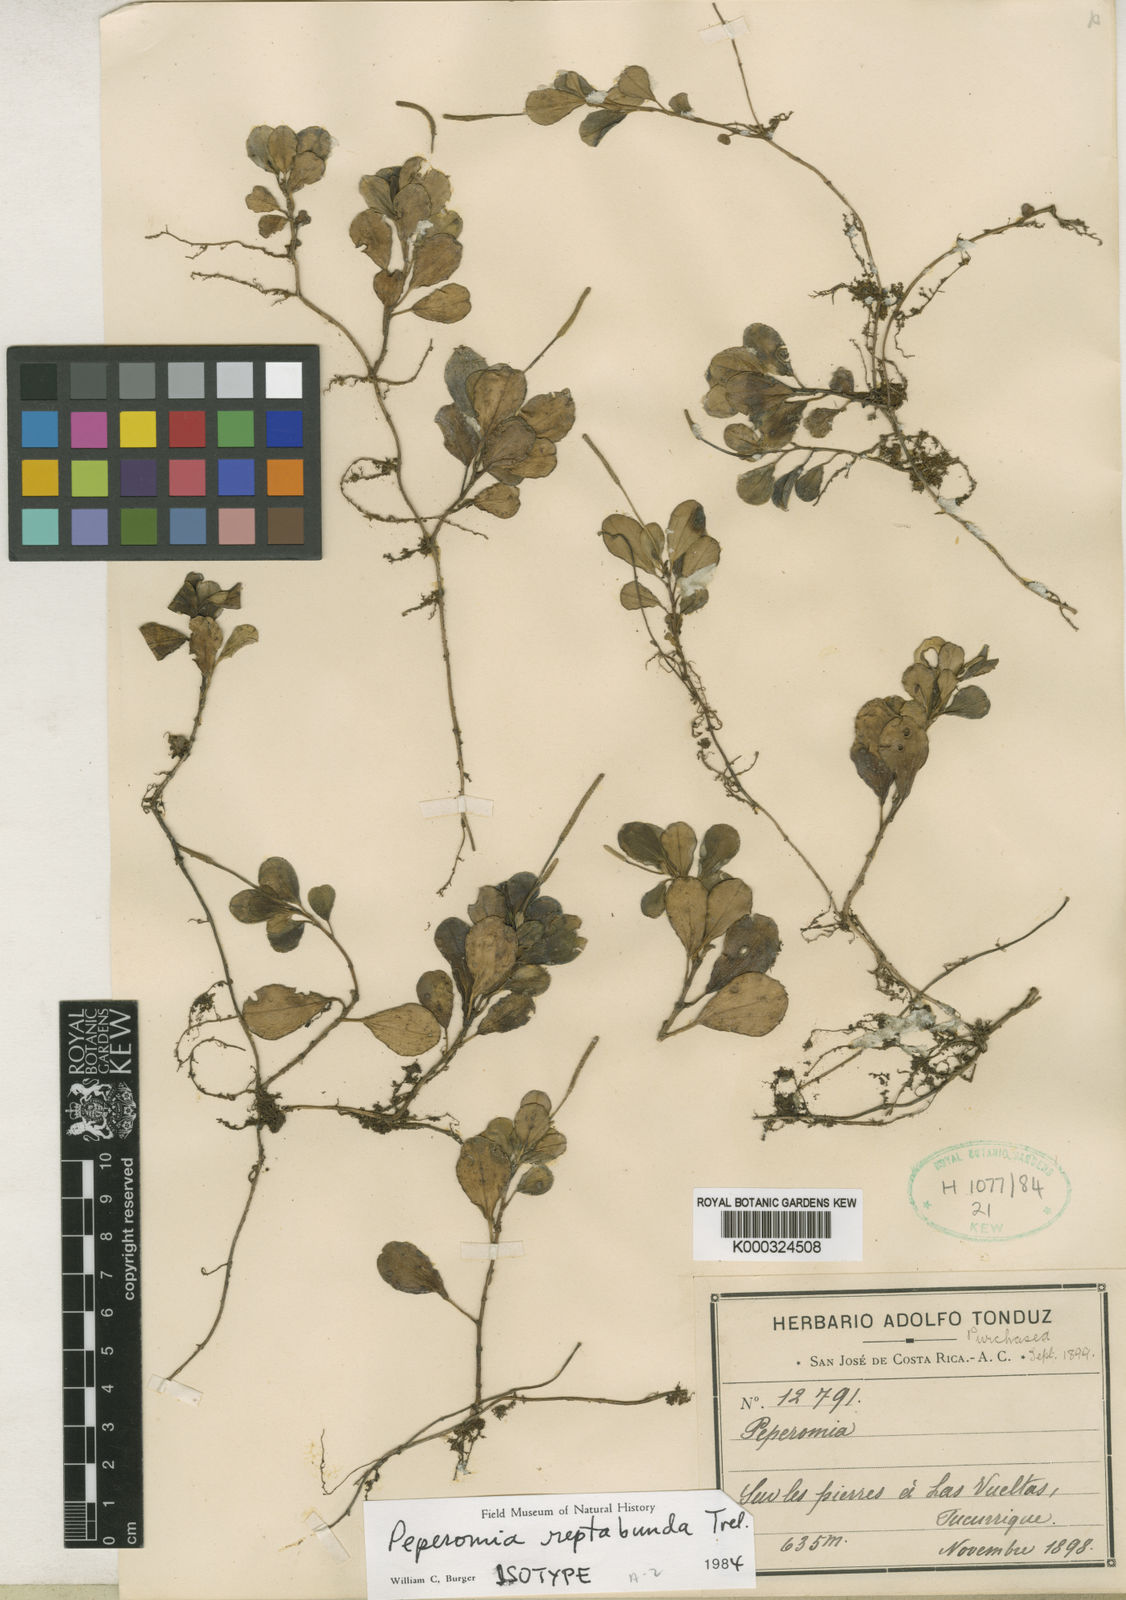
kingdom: Plantae
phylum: Tracheophyta
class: Magnoliopsida
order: Piperales
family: Piperaceae
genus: Peperomia
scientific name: Peperomia martiana
